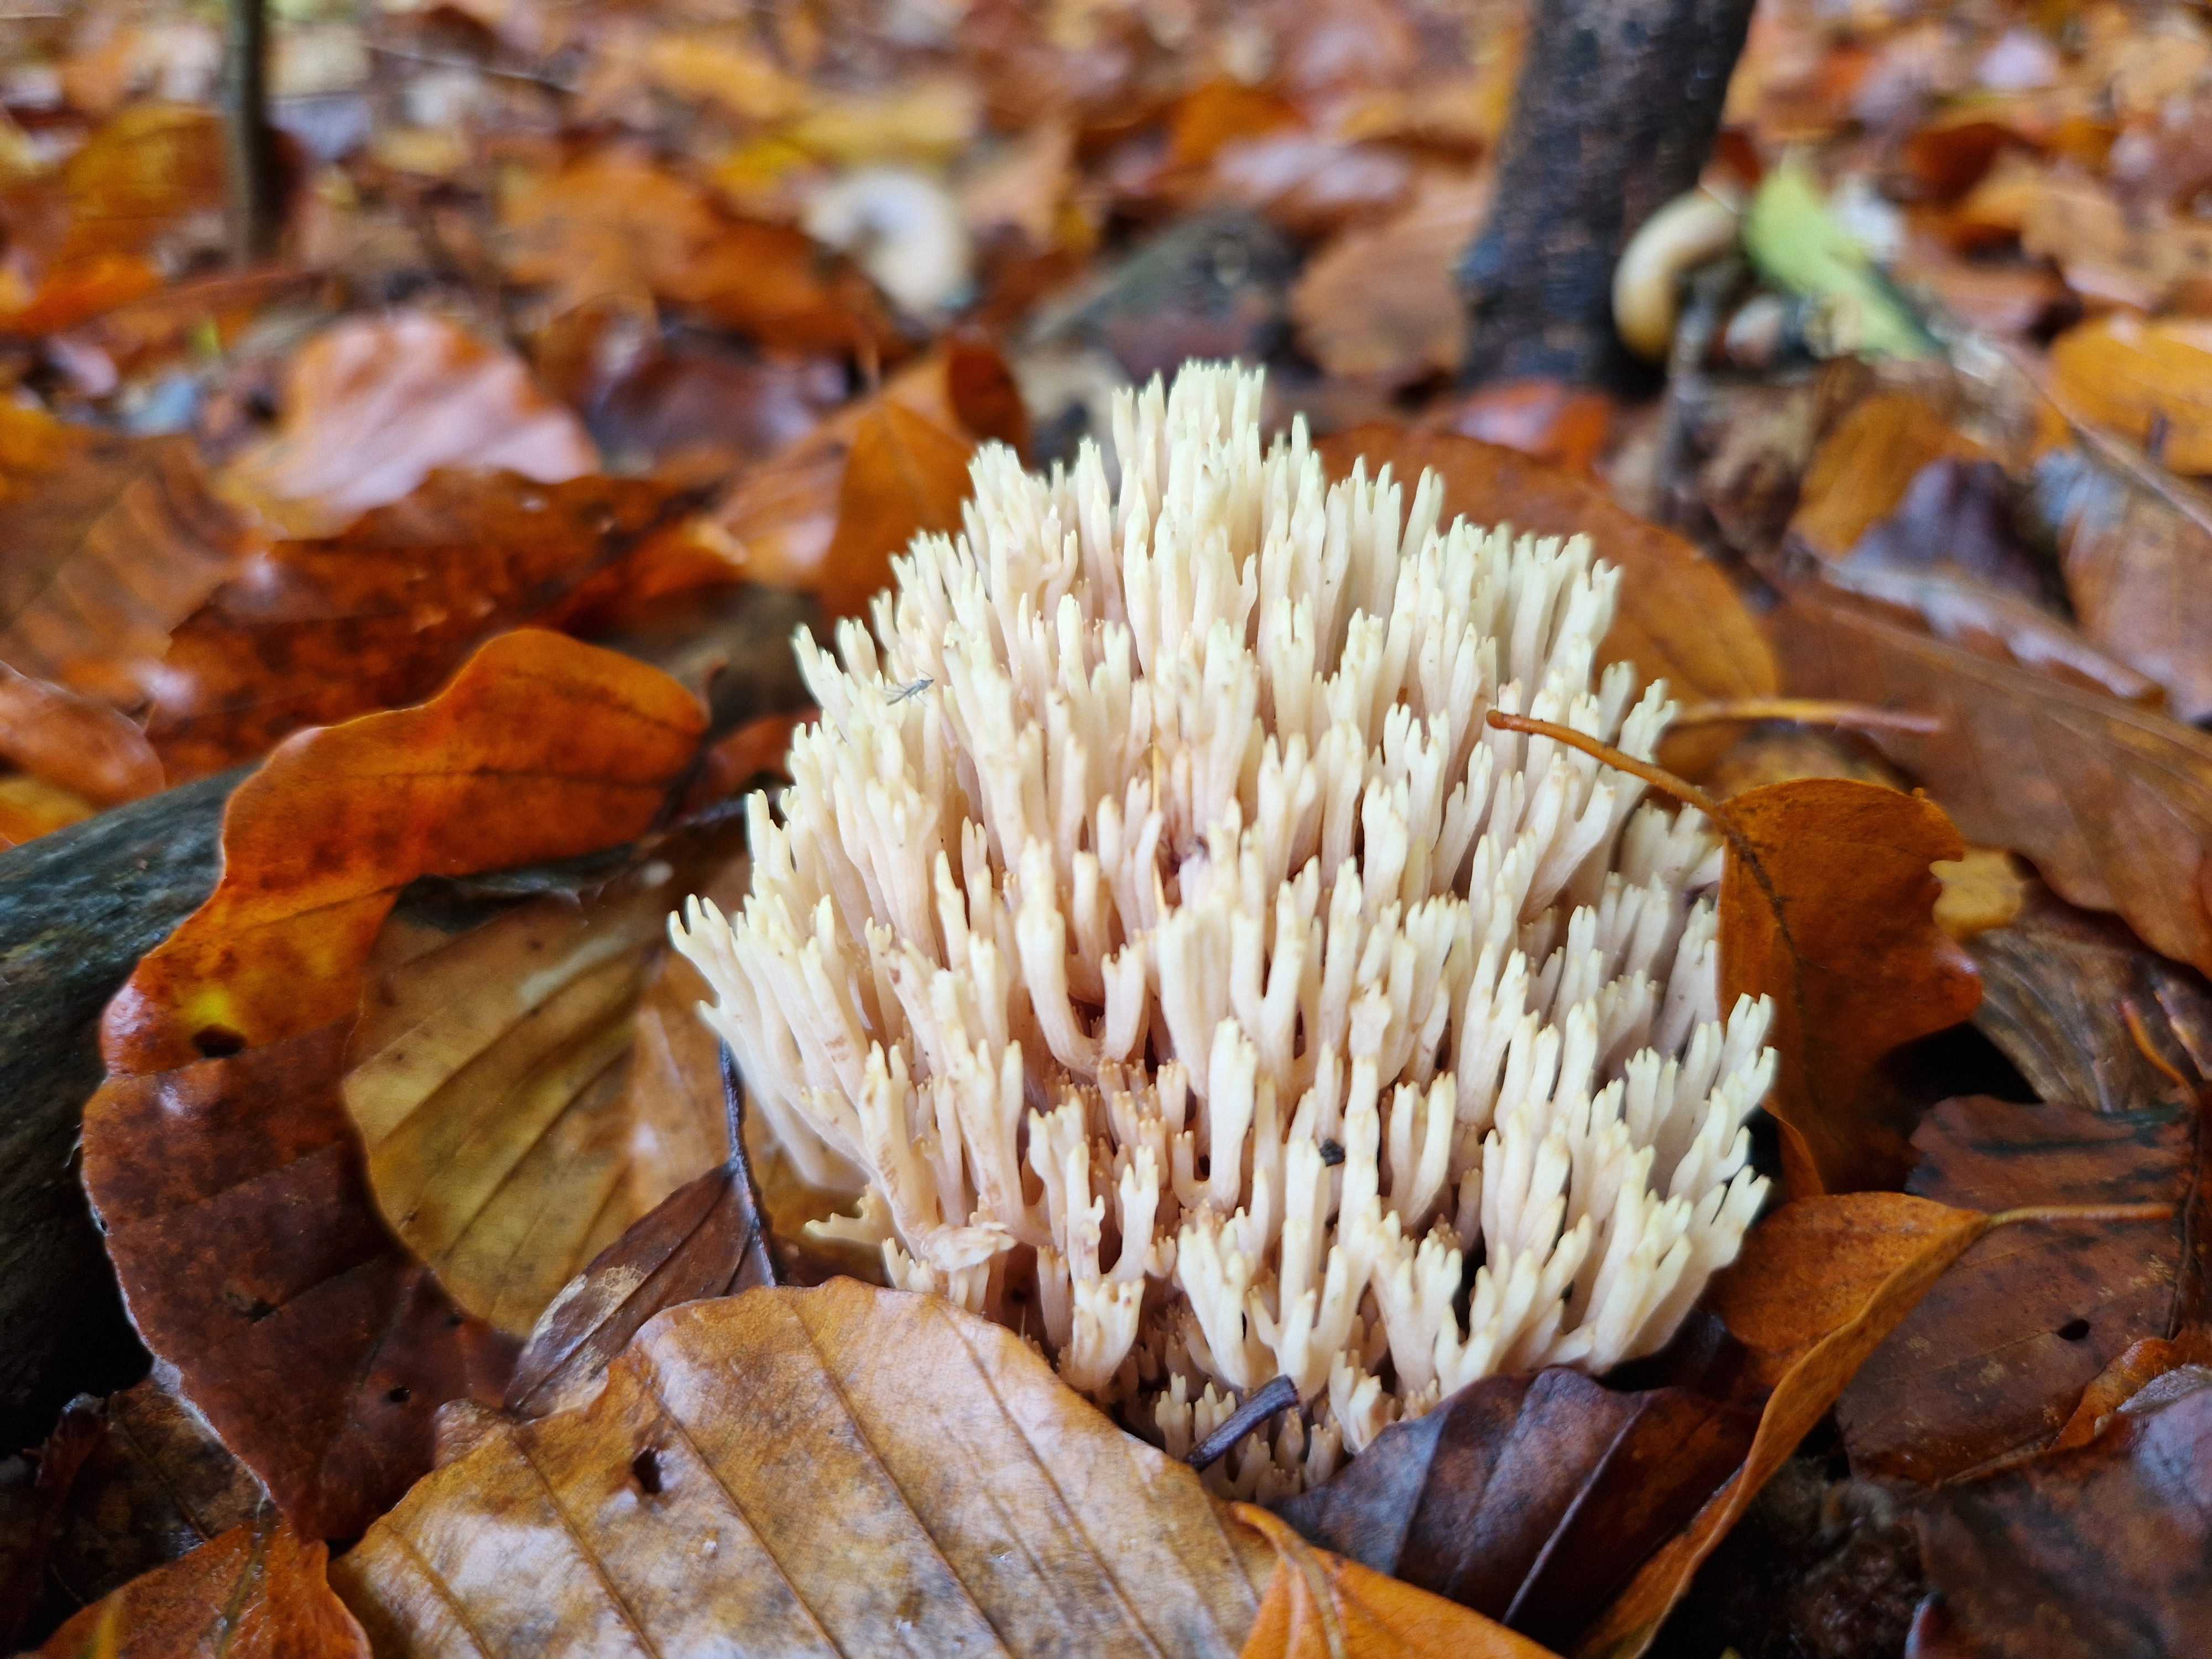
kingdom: Fungi
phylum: Basidiomycota
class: Agaricomycetes
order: Gomphales
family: Gomphaceae
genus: Ramaria
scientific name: Ramaria stricta
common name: rank koralsvamp
